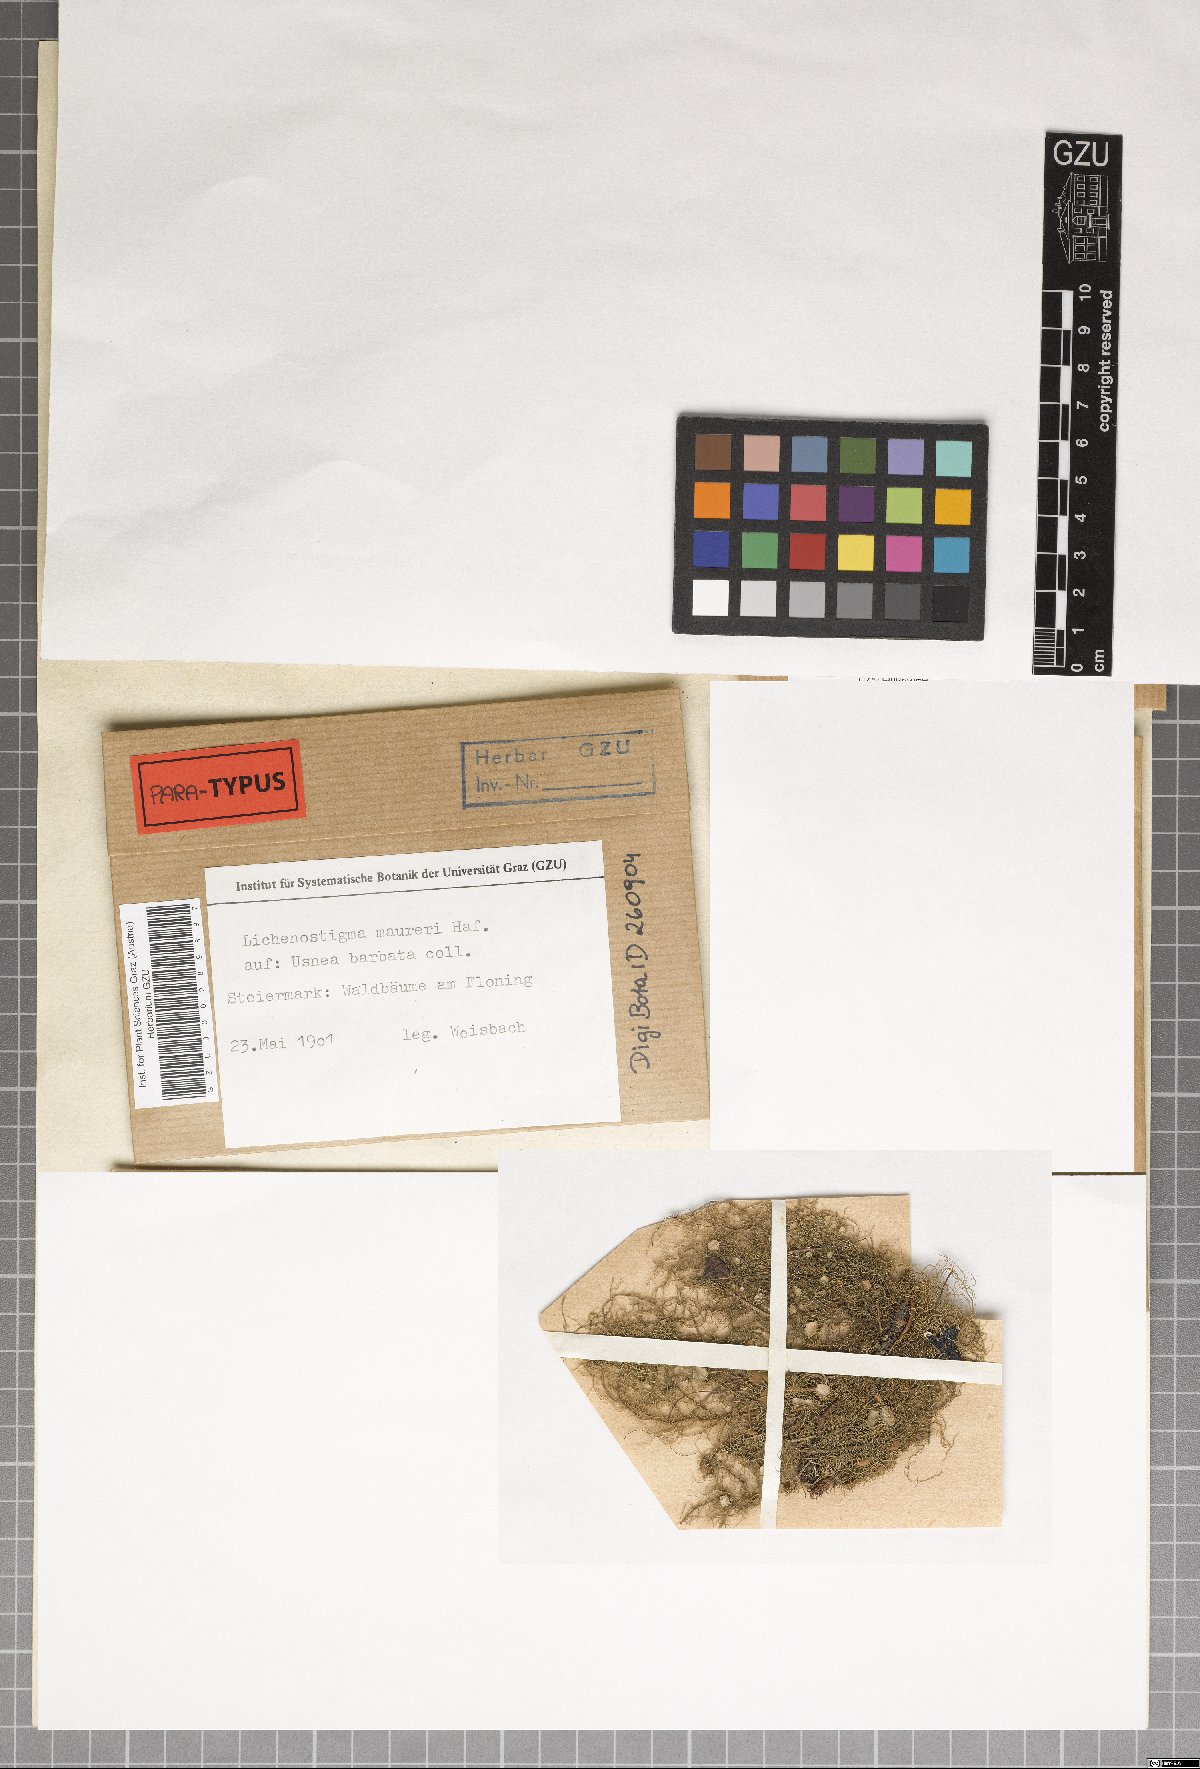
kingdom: Fungi
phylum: Ascomycota
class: Arthoniomycetes
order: Lichenostigmatales
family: Phaeococcomycetaceae
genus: Lichenostigma
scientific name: Lichenostigma maureri
